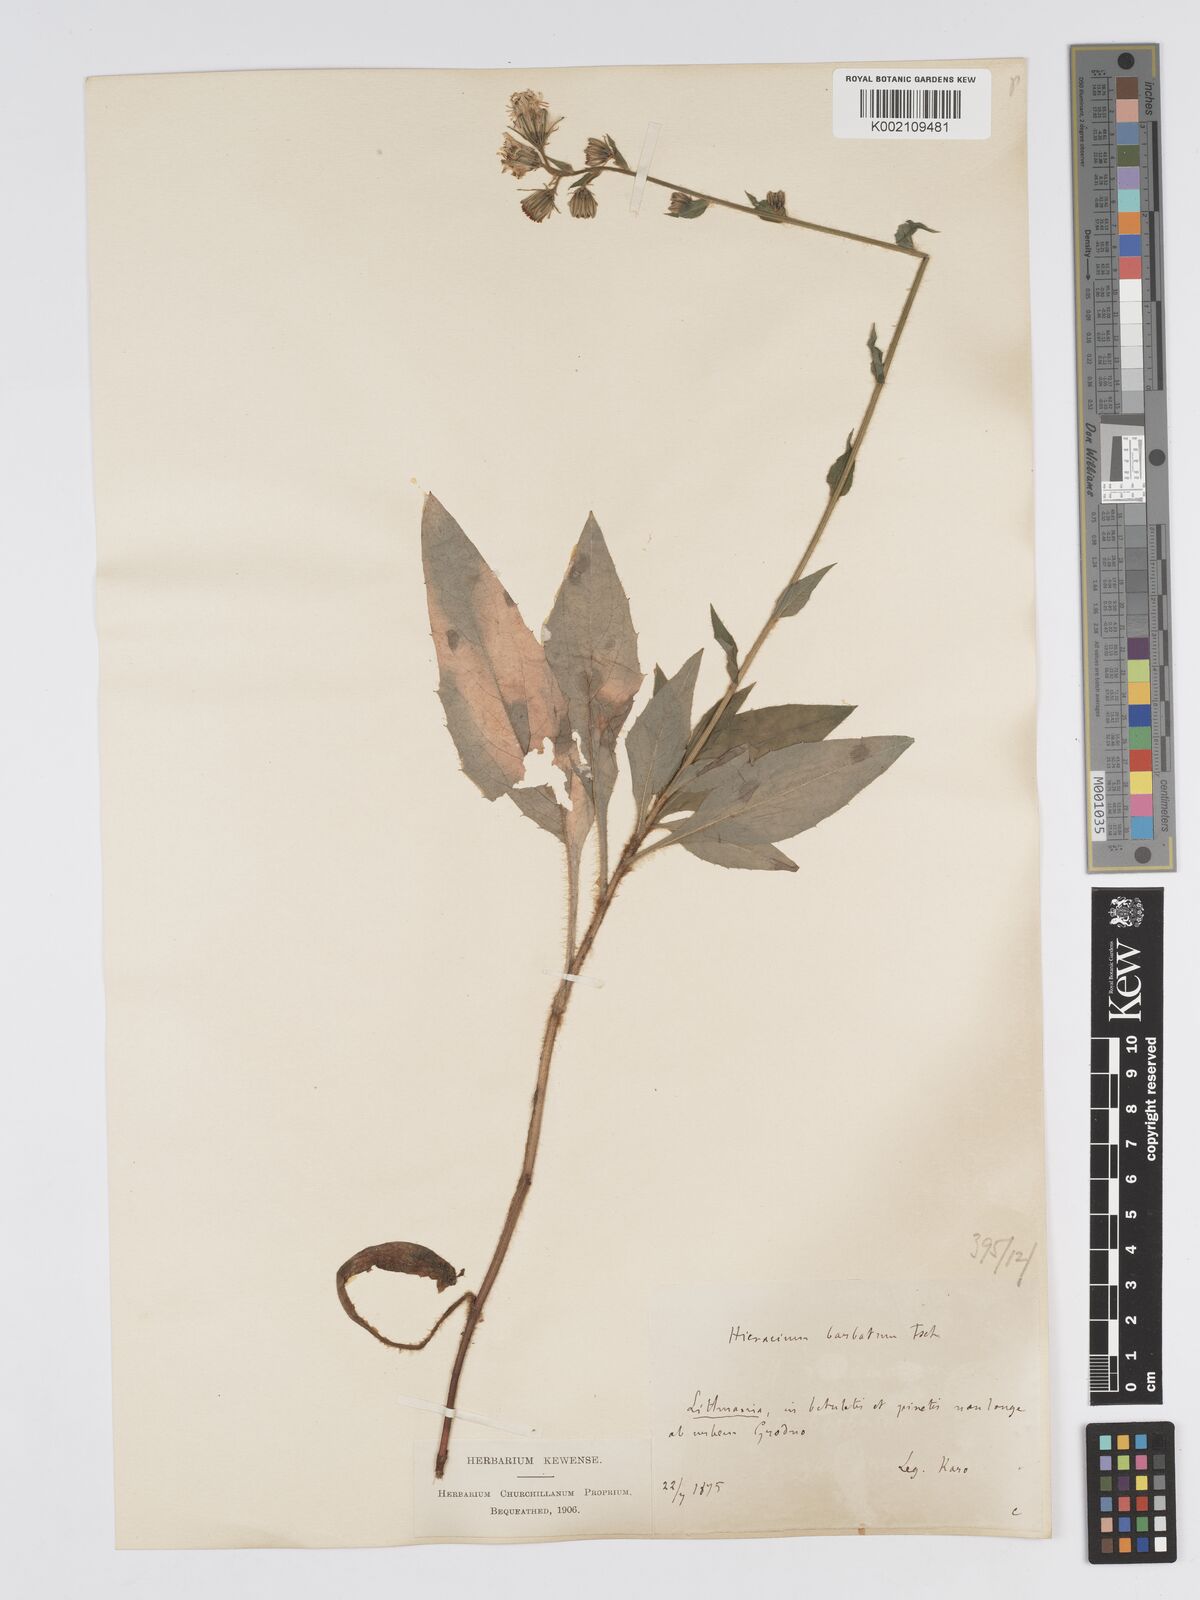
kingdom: Plantae
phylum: Tracheophyta
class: Magnoliopsida
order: Asterales
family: Asteraceae
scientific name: Asteraceae
